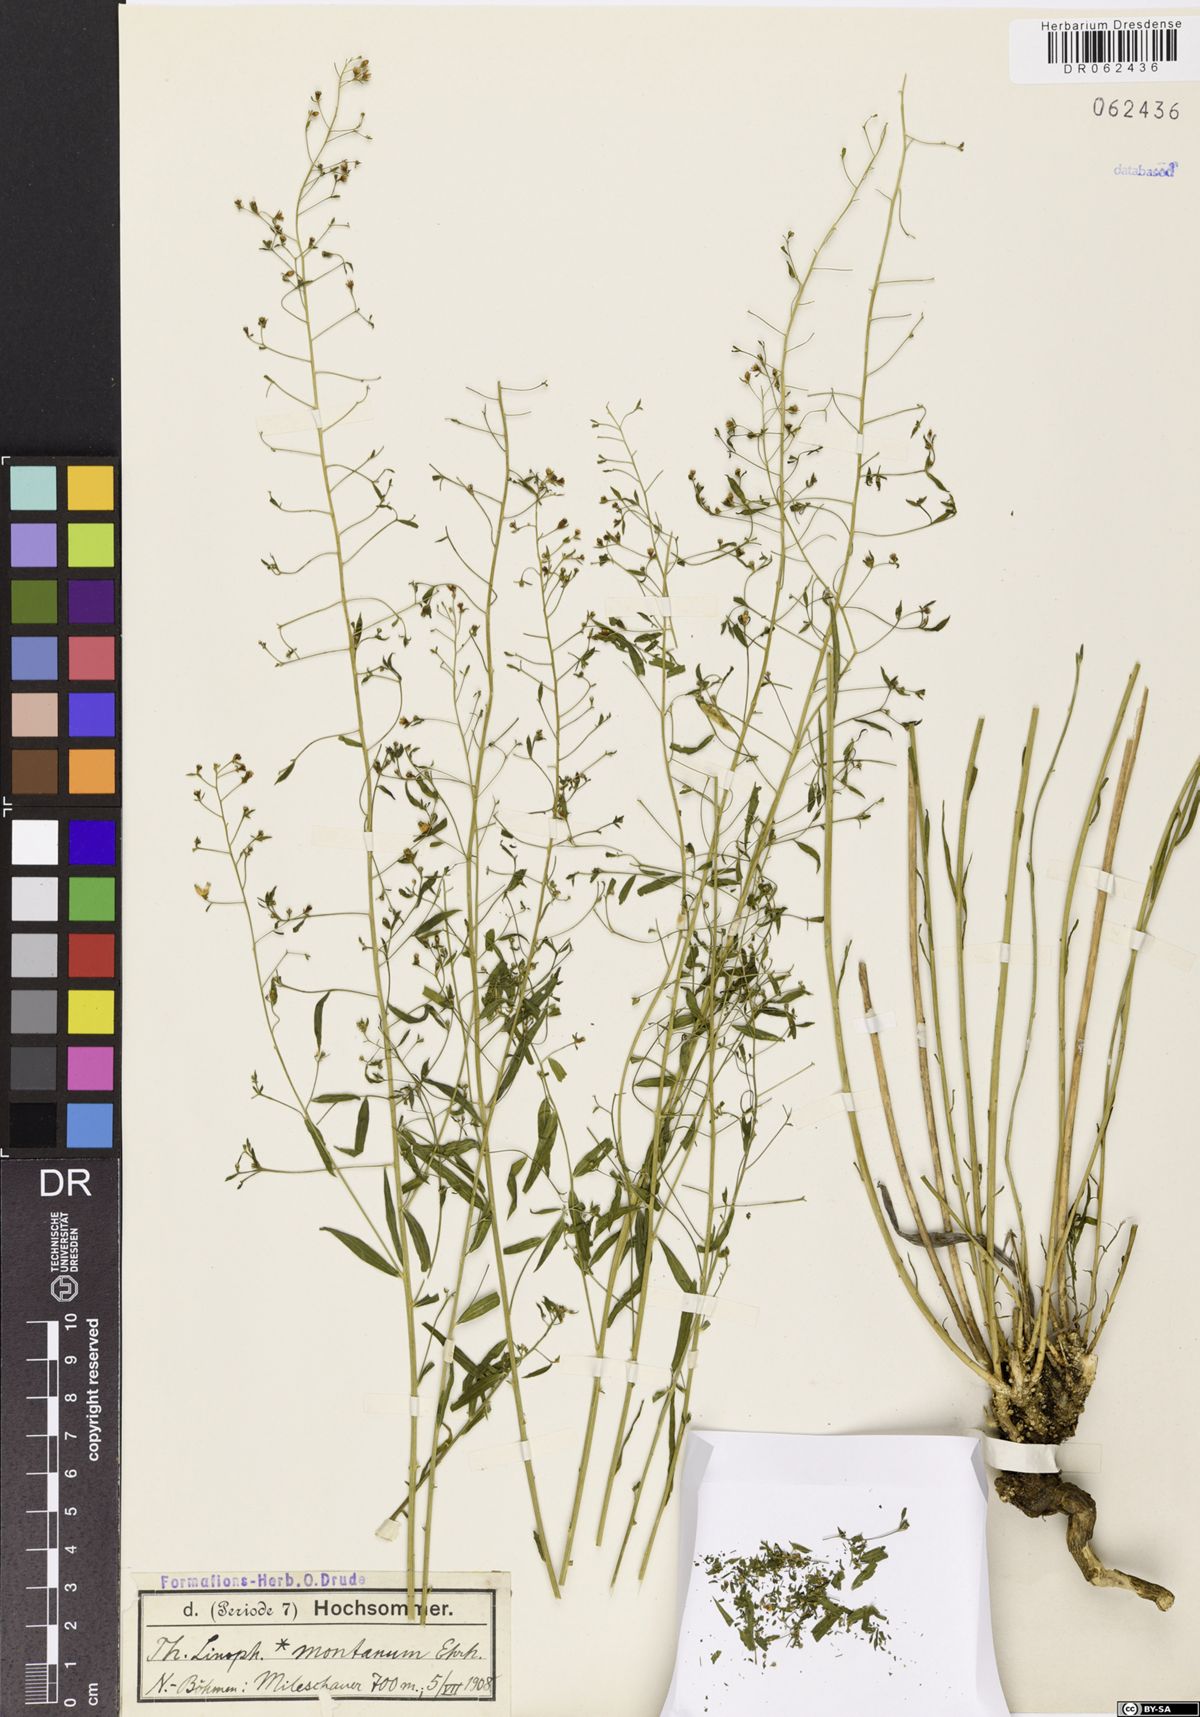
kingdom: Plantae
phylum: Tracheophyta
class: Magnoliopsida
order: Santalales
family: Thesiaceae
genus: Thesium
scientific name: Thesium linophyllon
